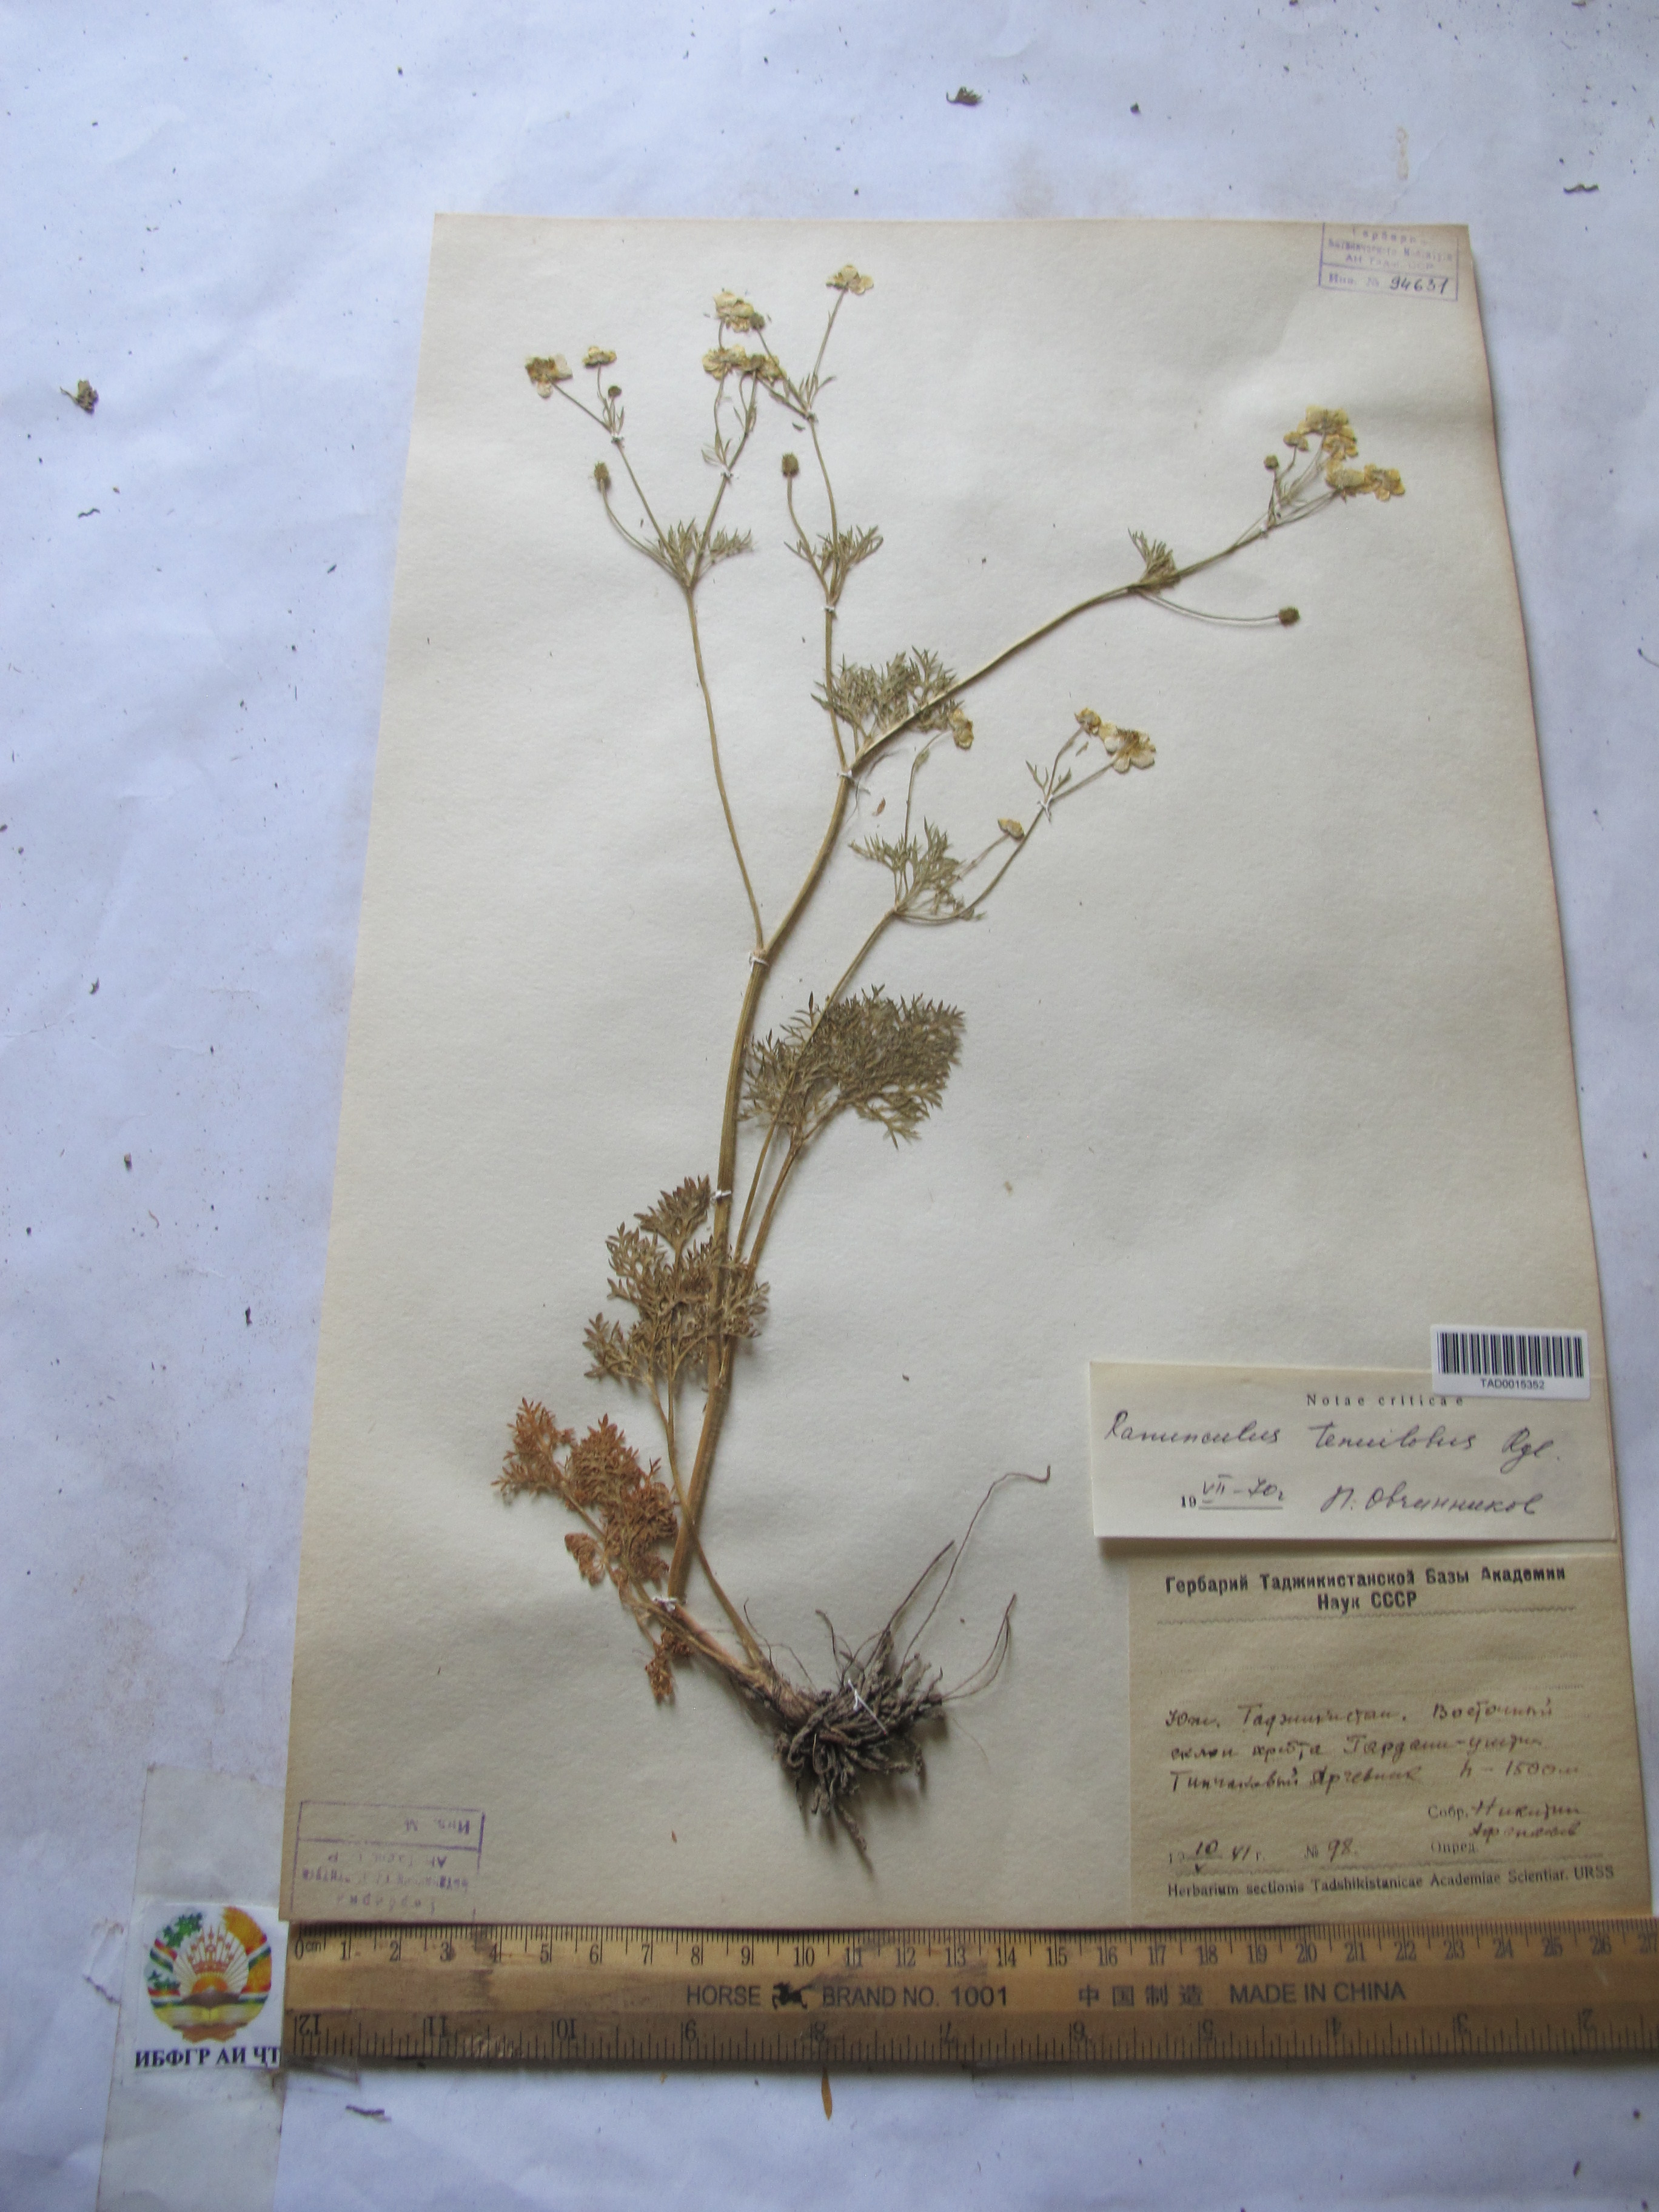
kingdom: Plantae
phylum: Tracheophyta
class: Magnoliopsida
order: Ranunculales
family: Ranunculaceae
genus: Ranunculus
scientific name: Ranunculus tenuilobus
